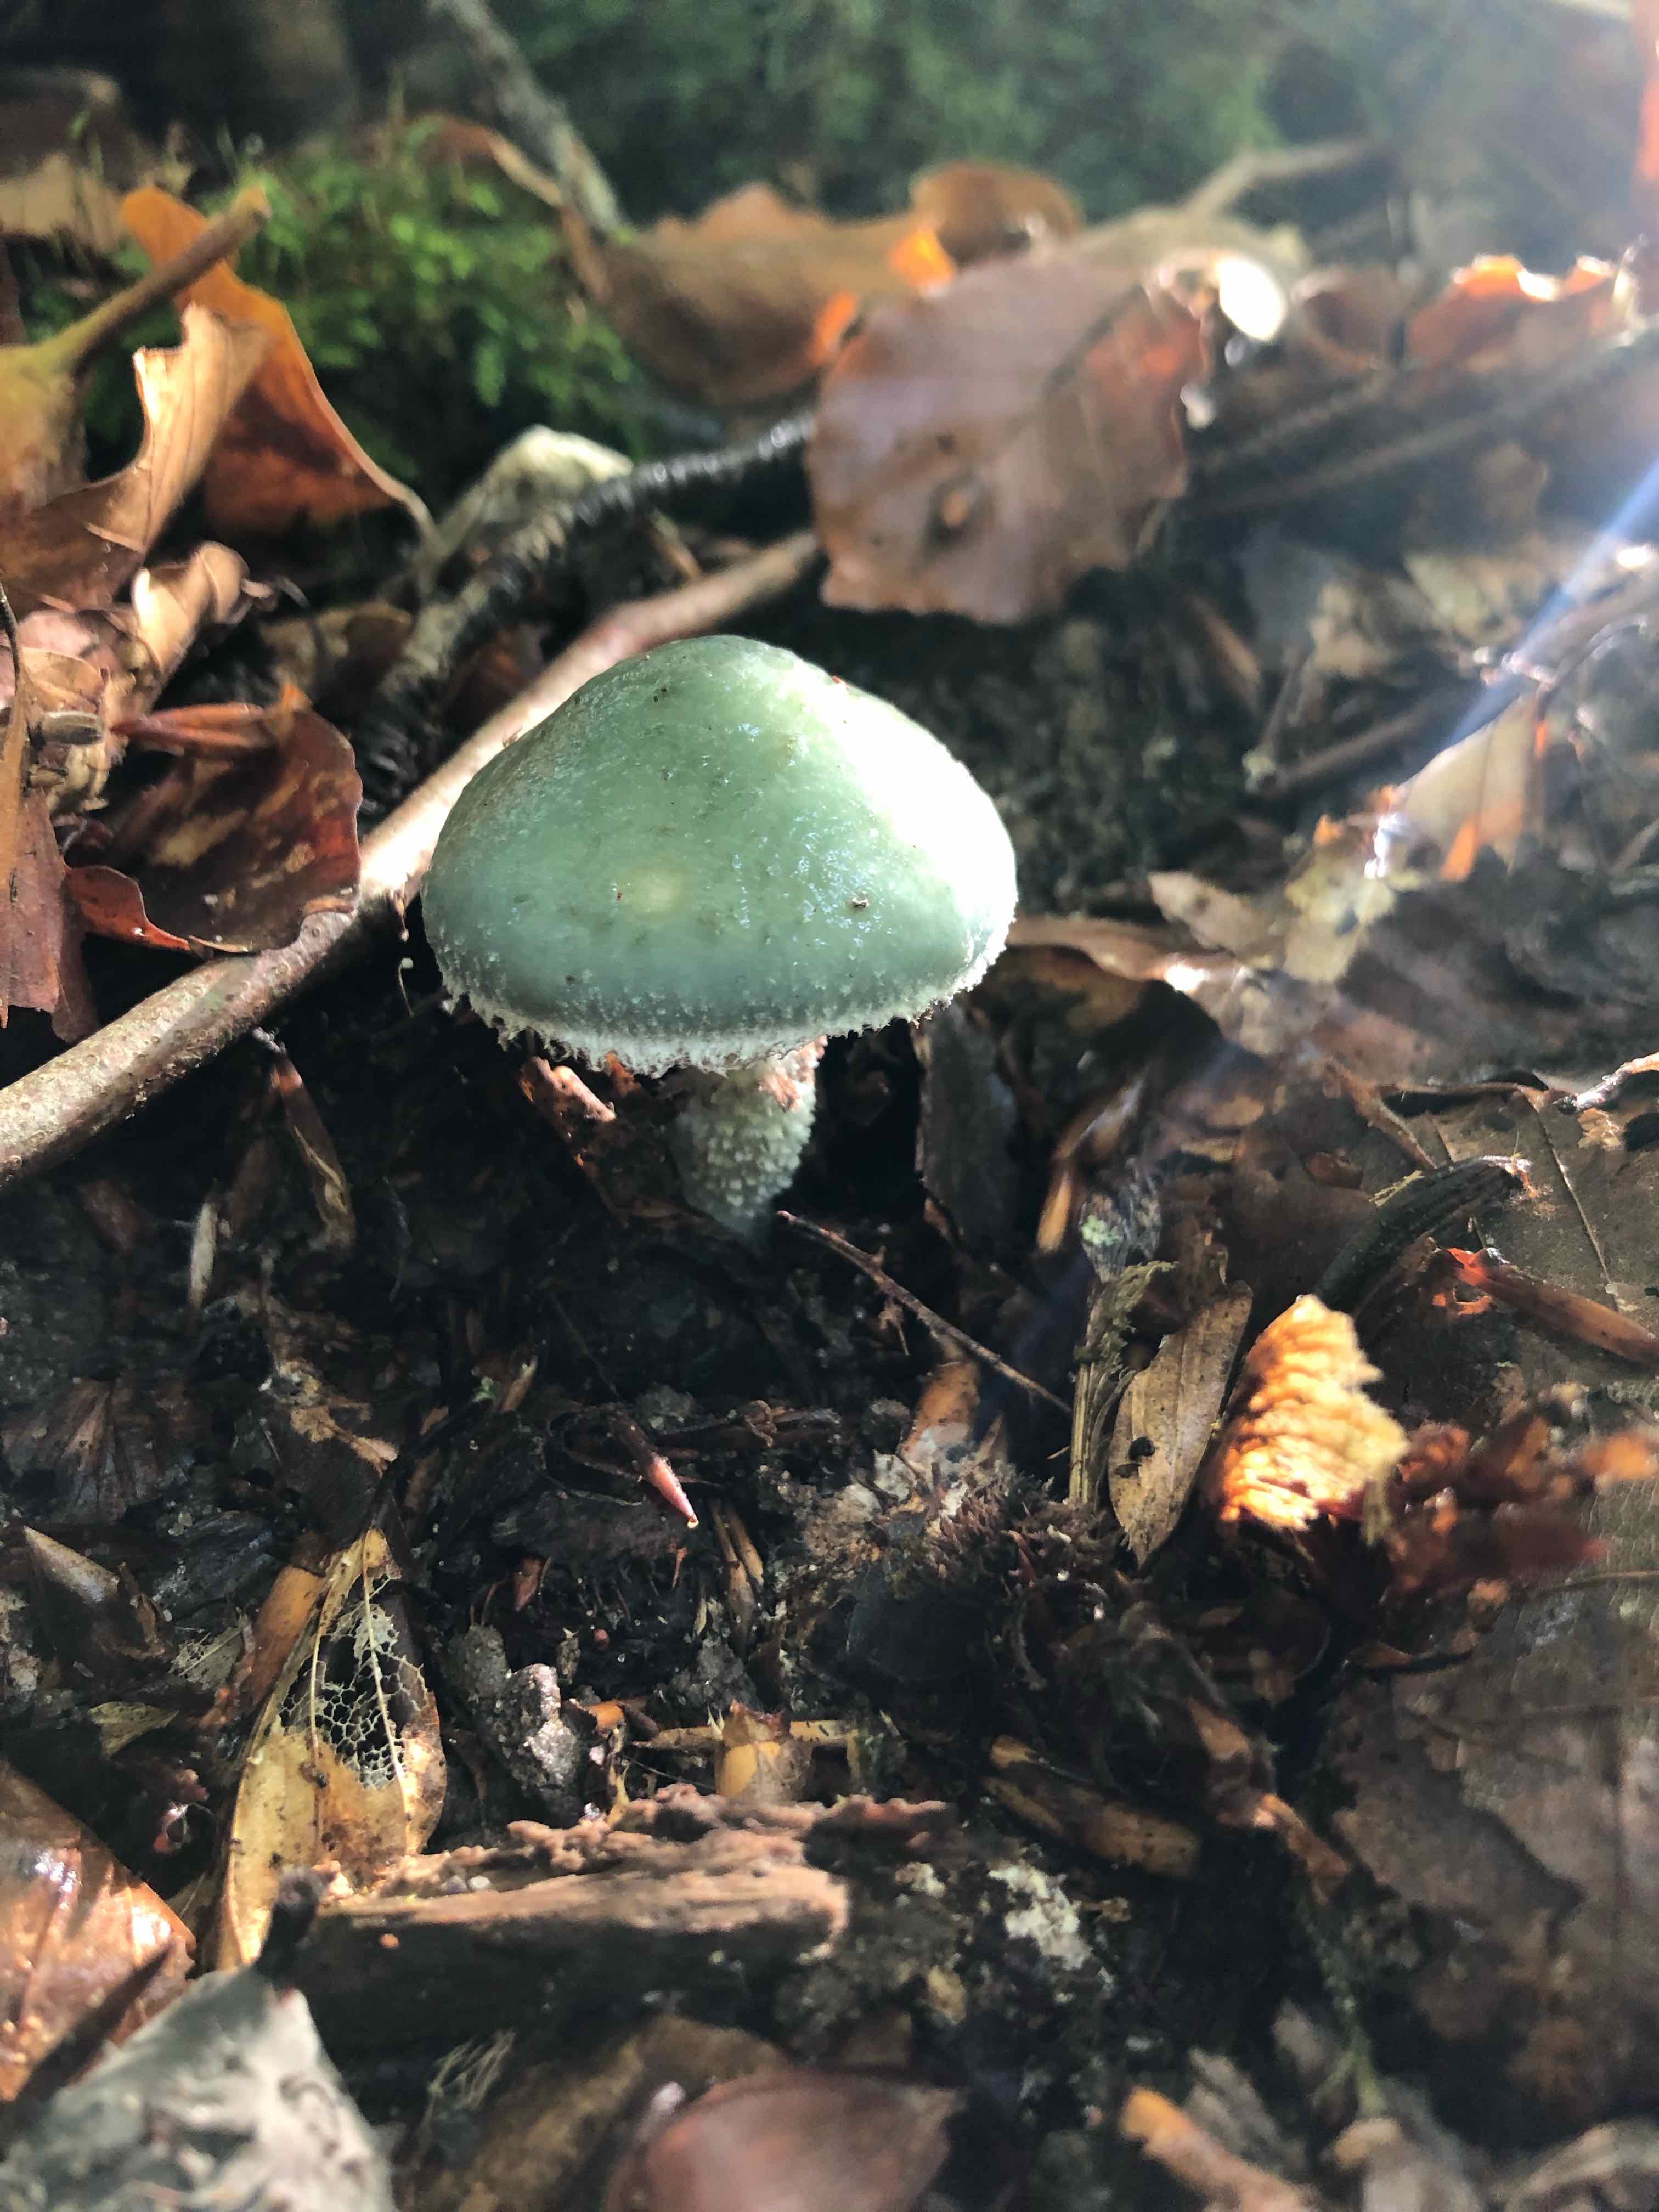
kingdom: Fungi
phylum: Basidiomycota
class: Agaricomycetes
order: Agaricales
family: Strophariaceae
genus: Stropharia
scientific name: Stropharia cyanea
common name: blågrøn bredblad
